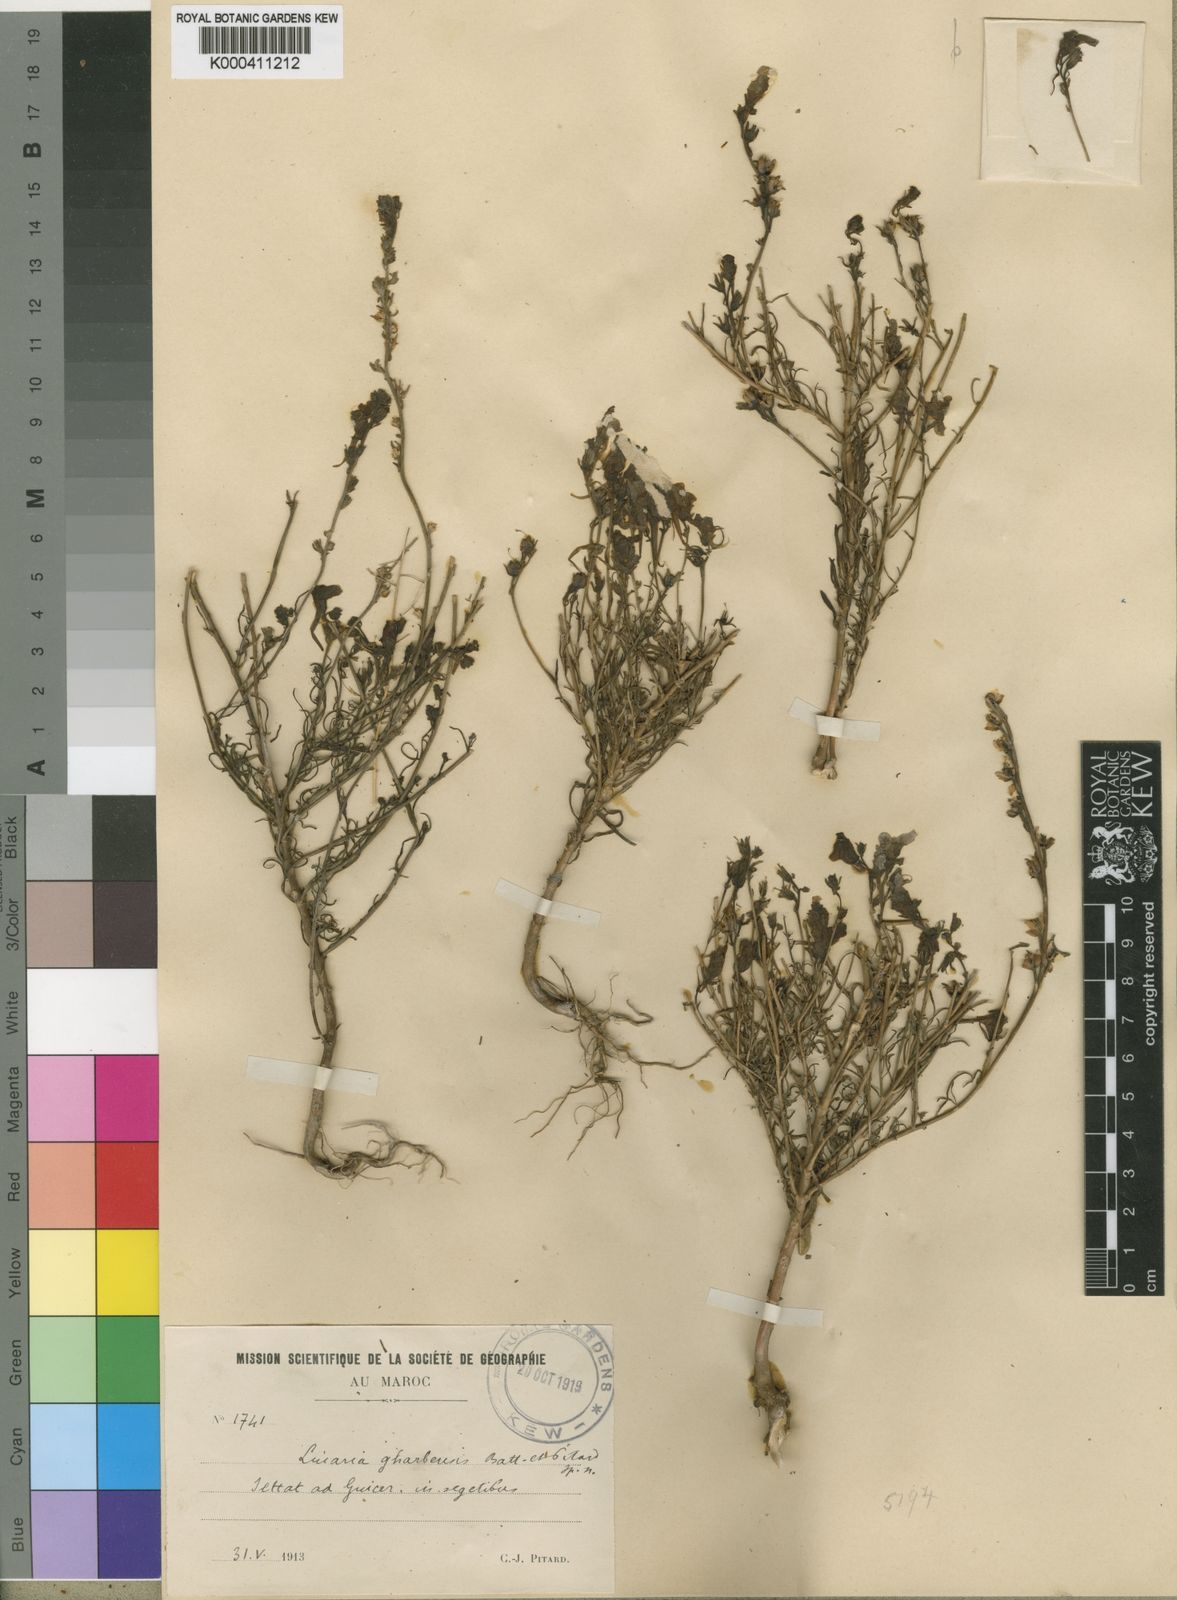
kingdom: Plantae
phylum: Tracheophyta
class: Magnoliopsida
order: Lamiales
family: Plantaginaceae
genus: Linaria
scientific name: Linaria gharbensis
